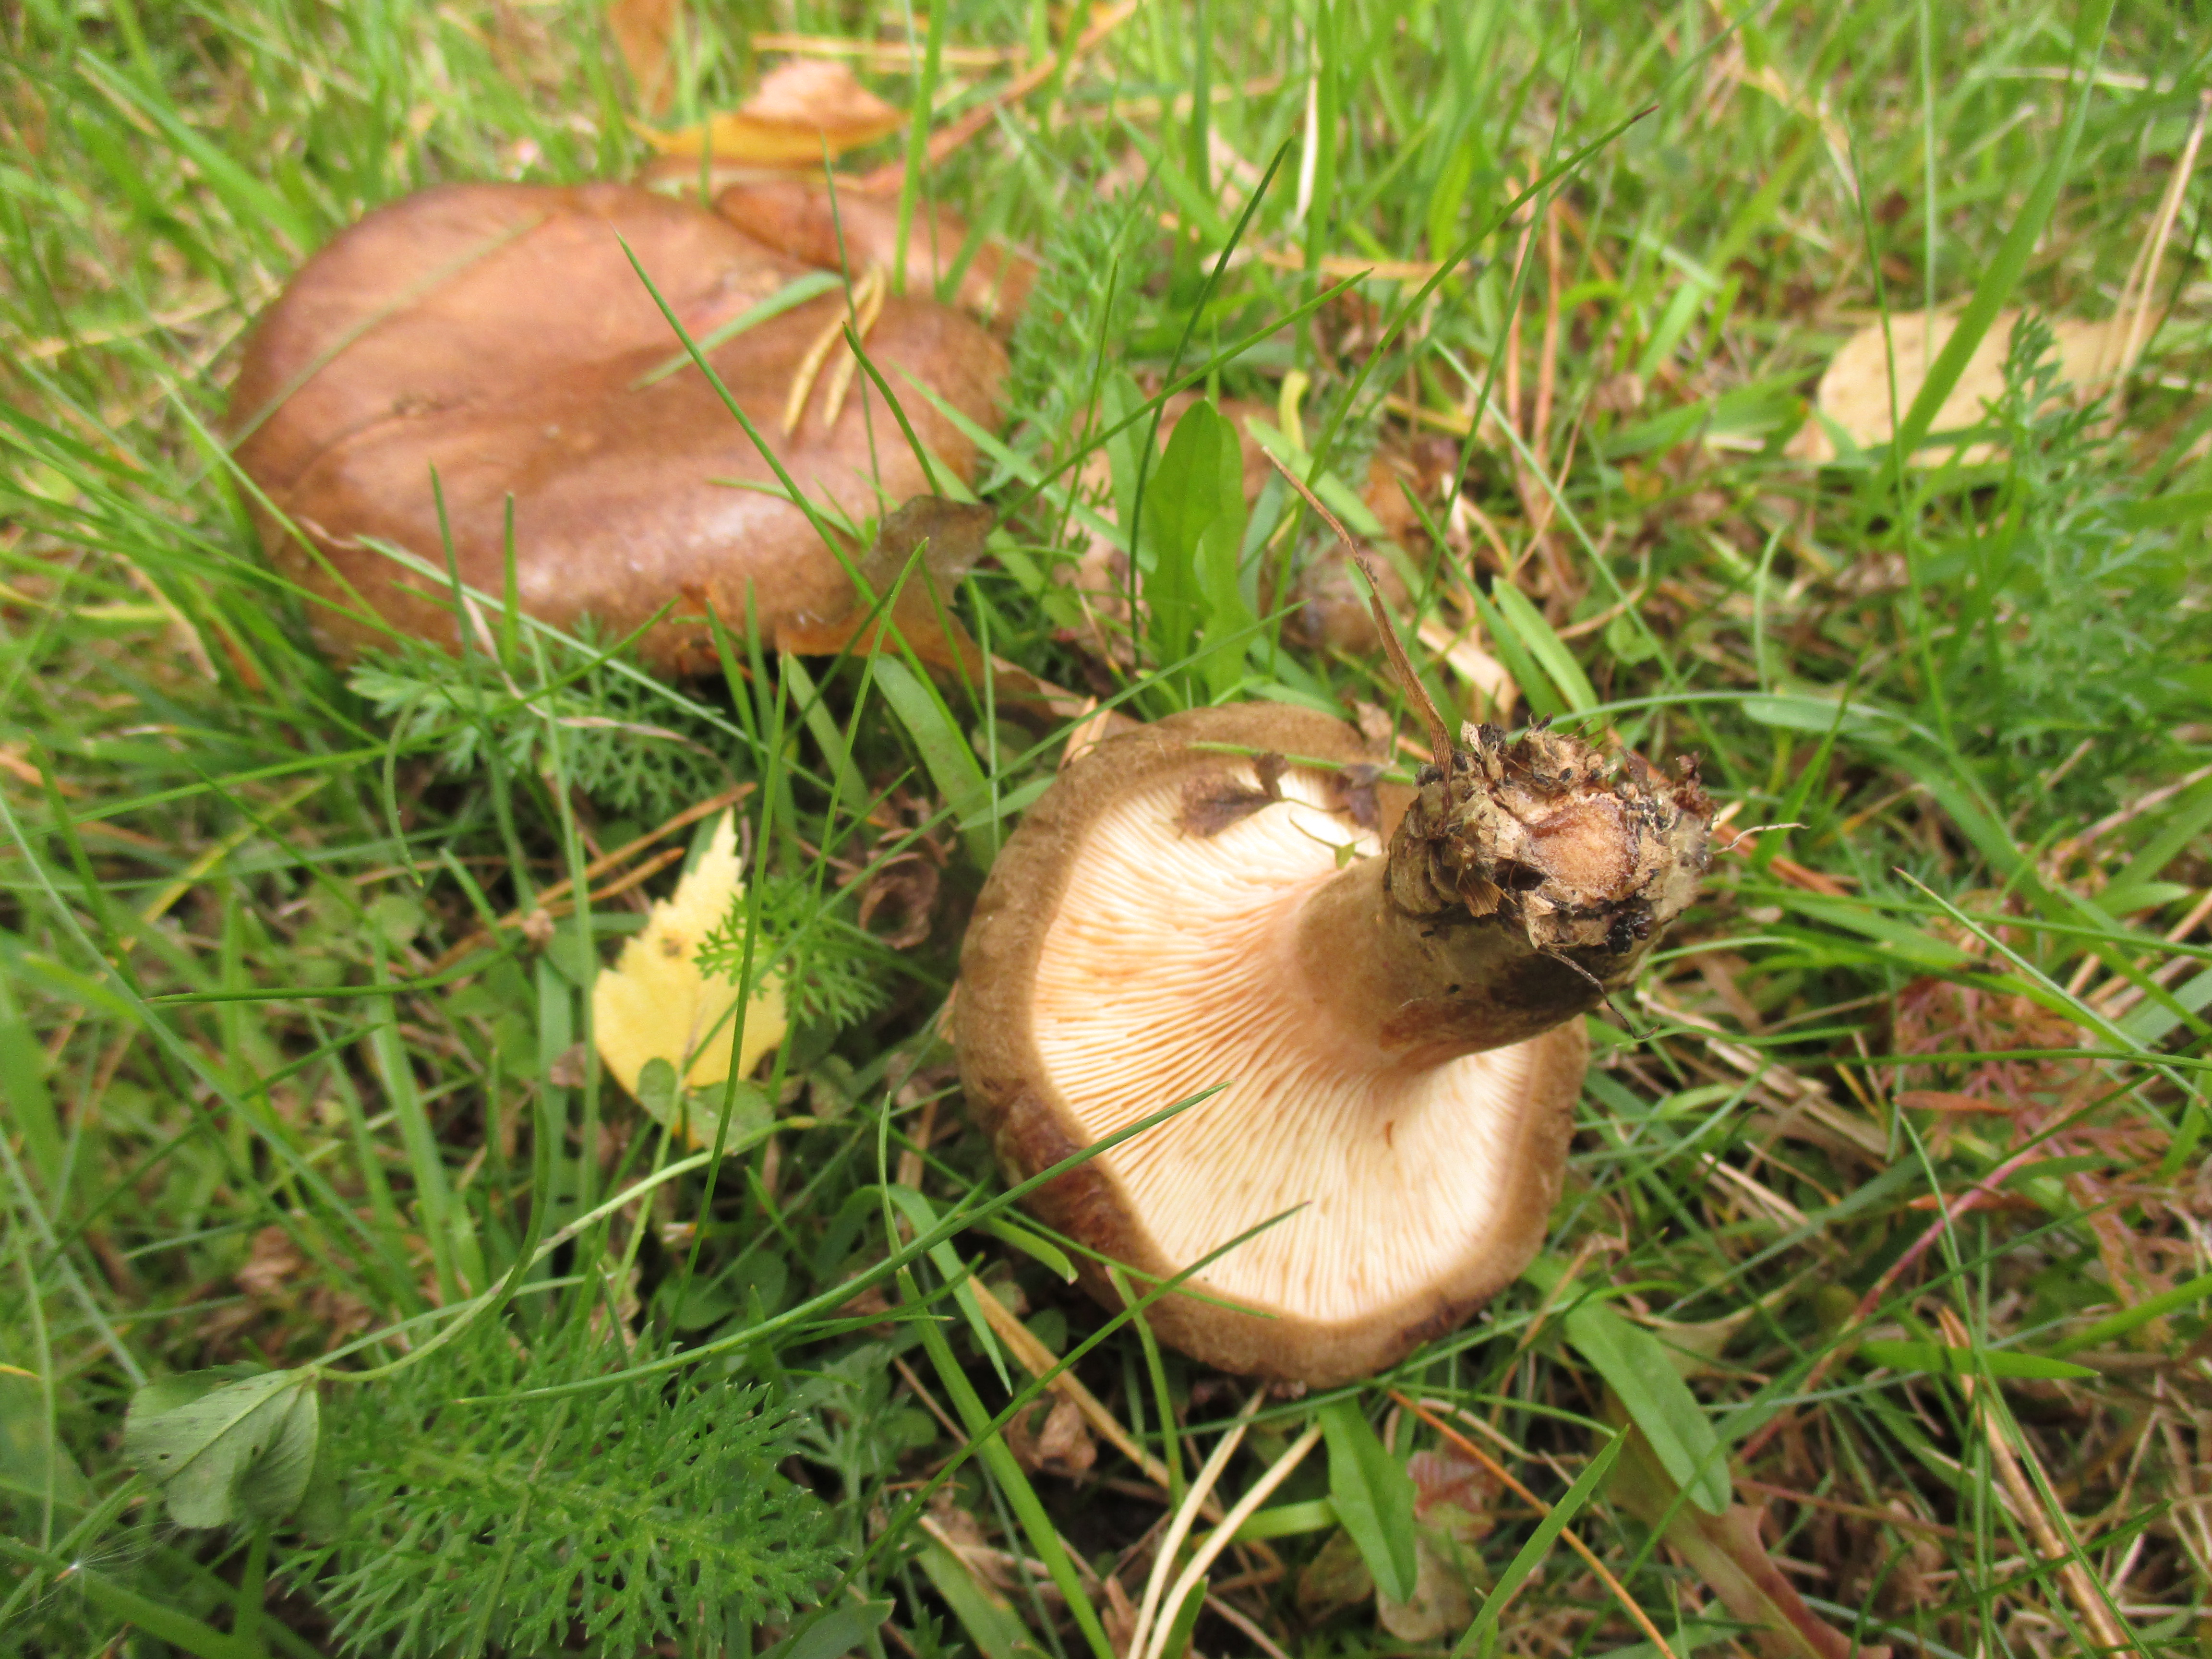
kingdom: Fungi
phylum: Basidiomycota
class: Agaricomycetes
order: Boletales
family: Paxillaceae
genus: Paxillus
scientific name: Paxillus involutus
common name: Brown roll rim
